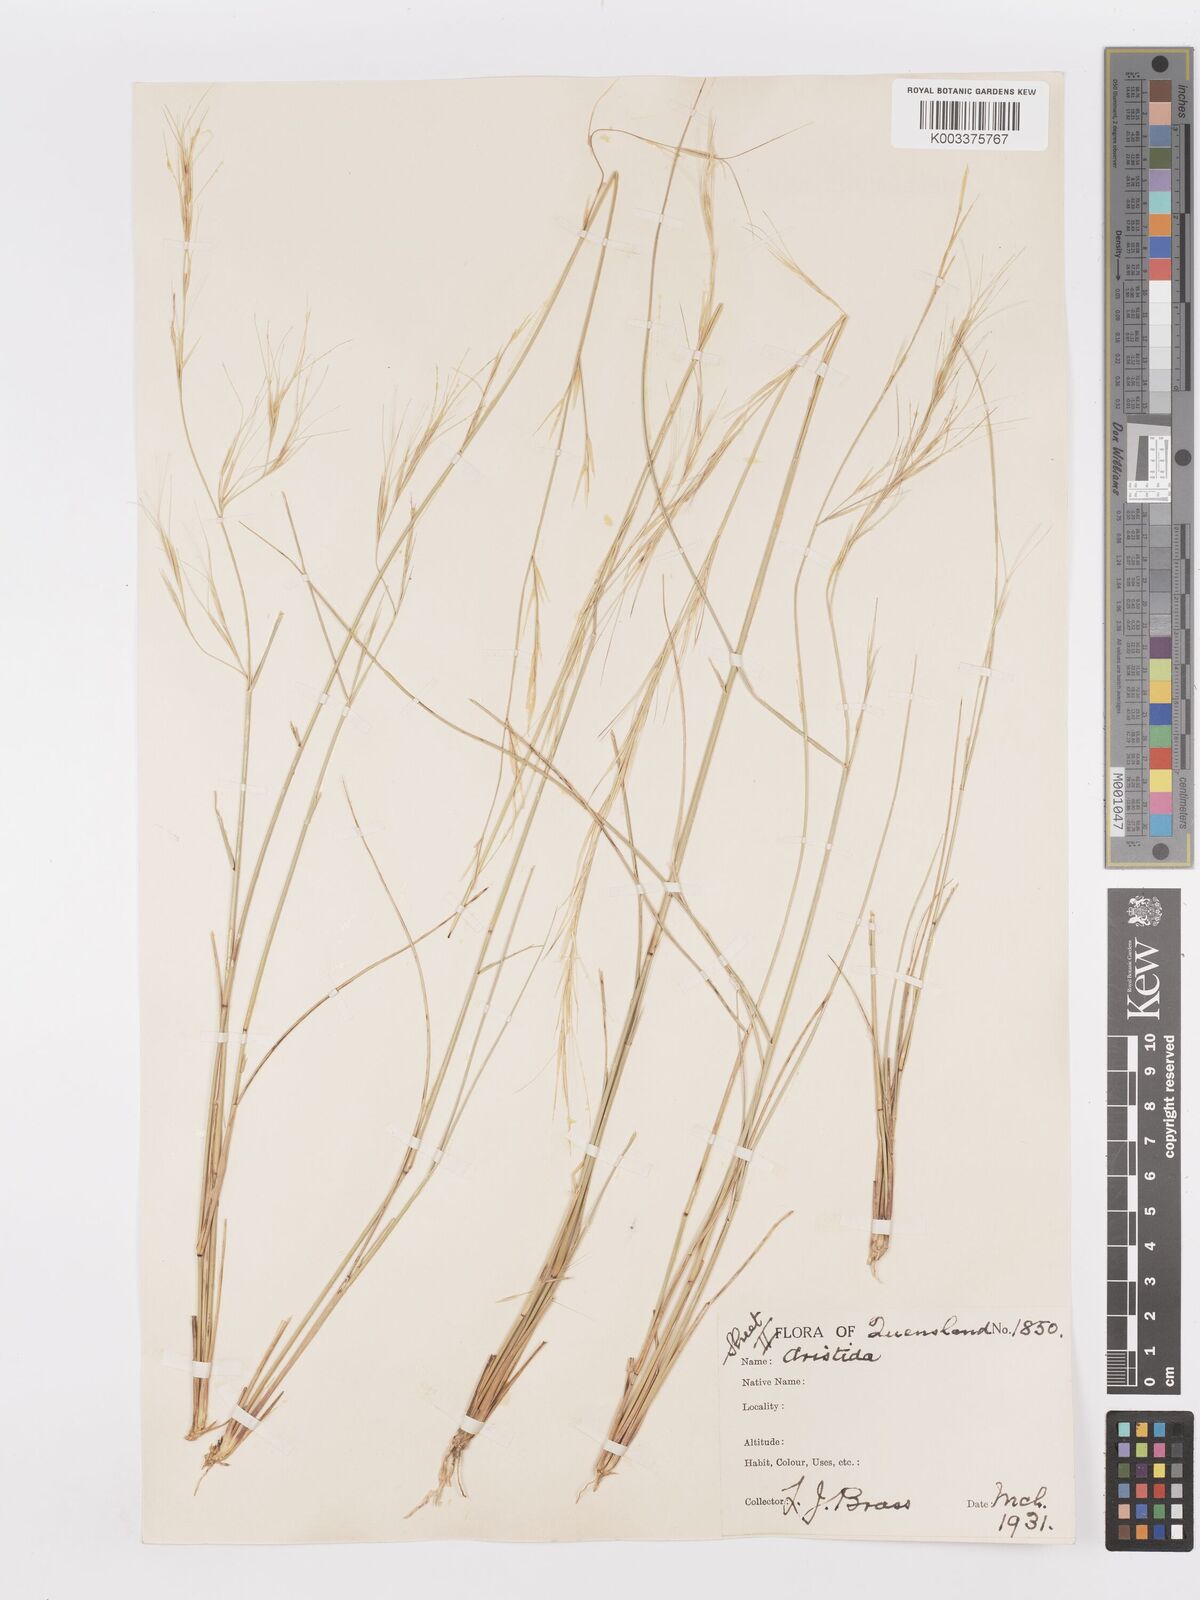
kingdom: Plantae
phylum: Tracheophyta
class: Liliopsida
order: Poales
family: Poaceae
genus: Aristida
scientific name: Aristida
